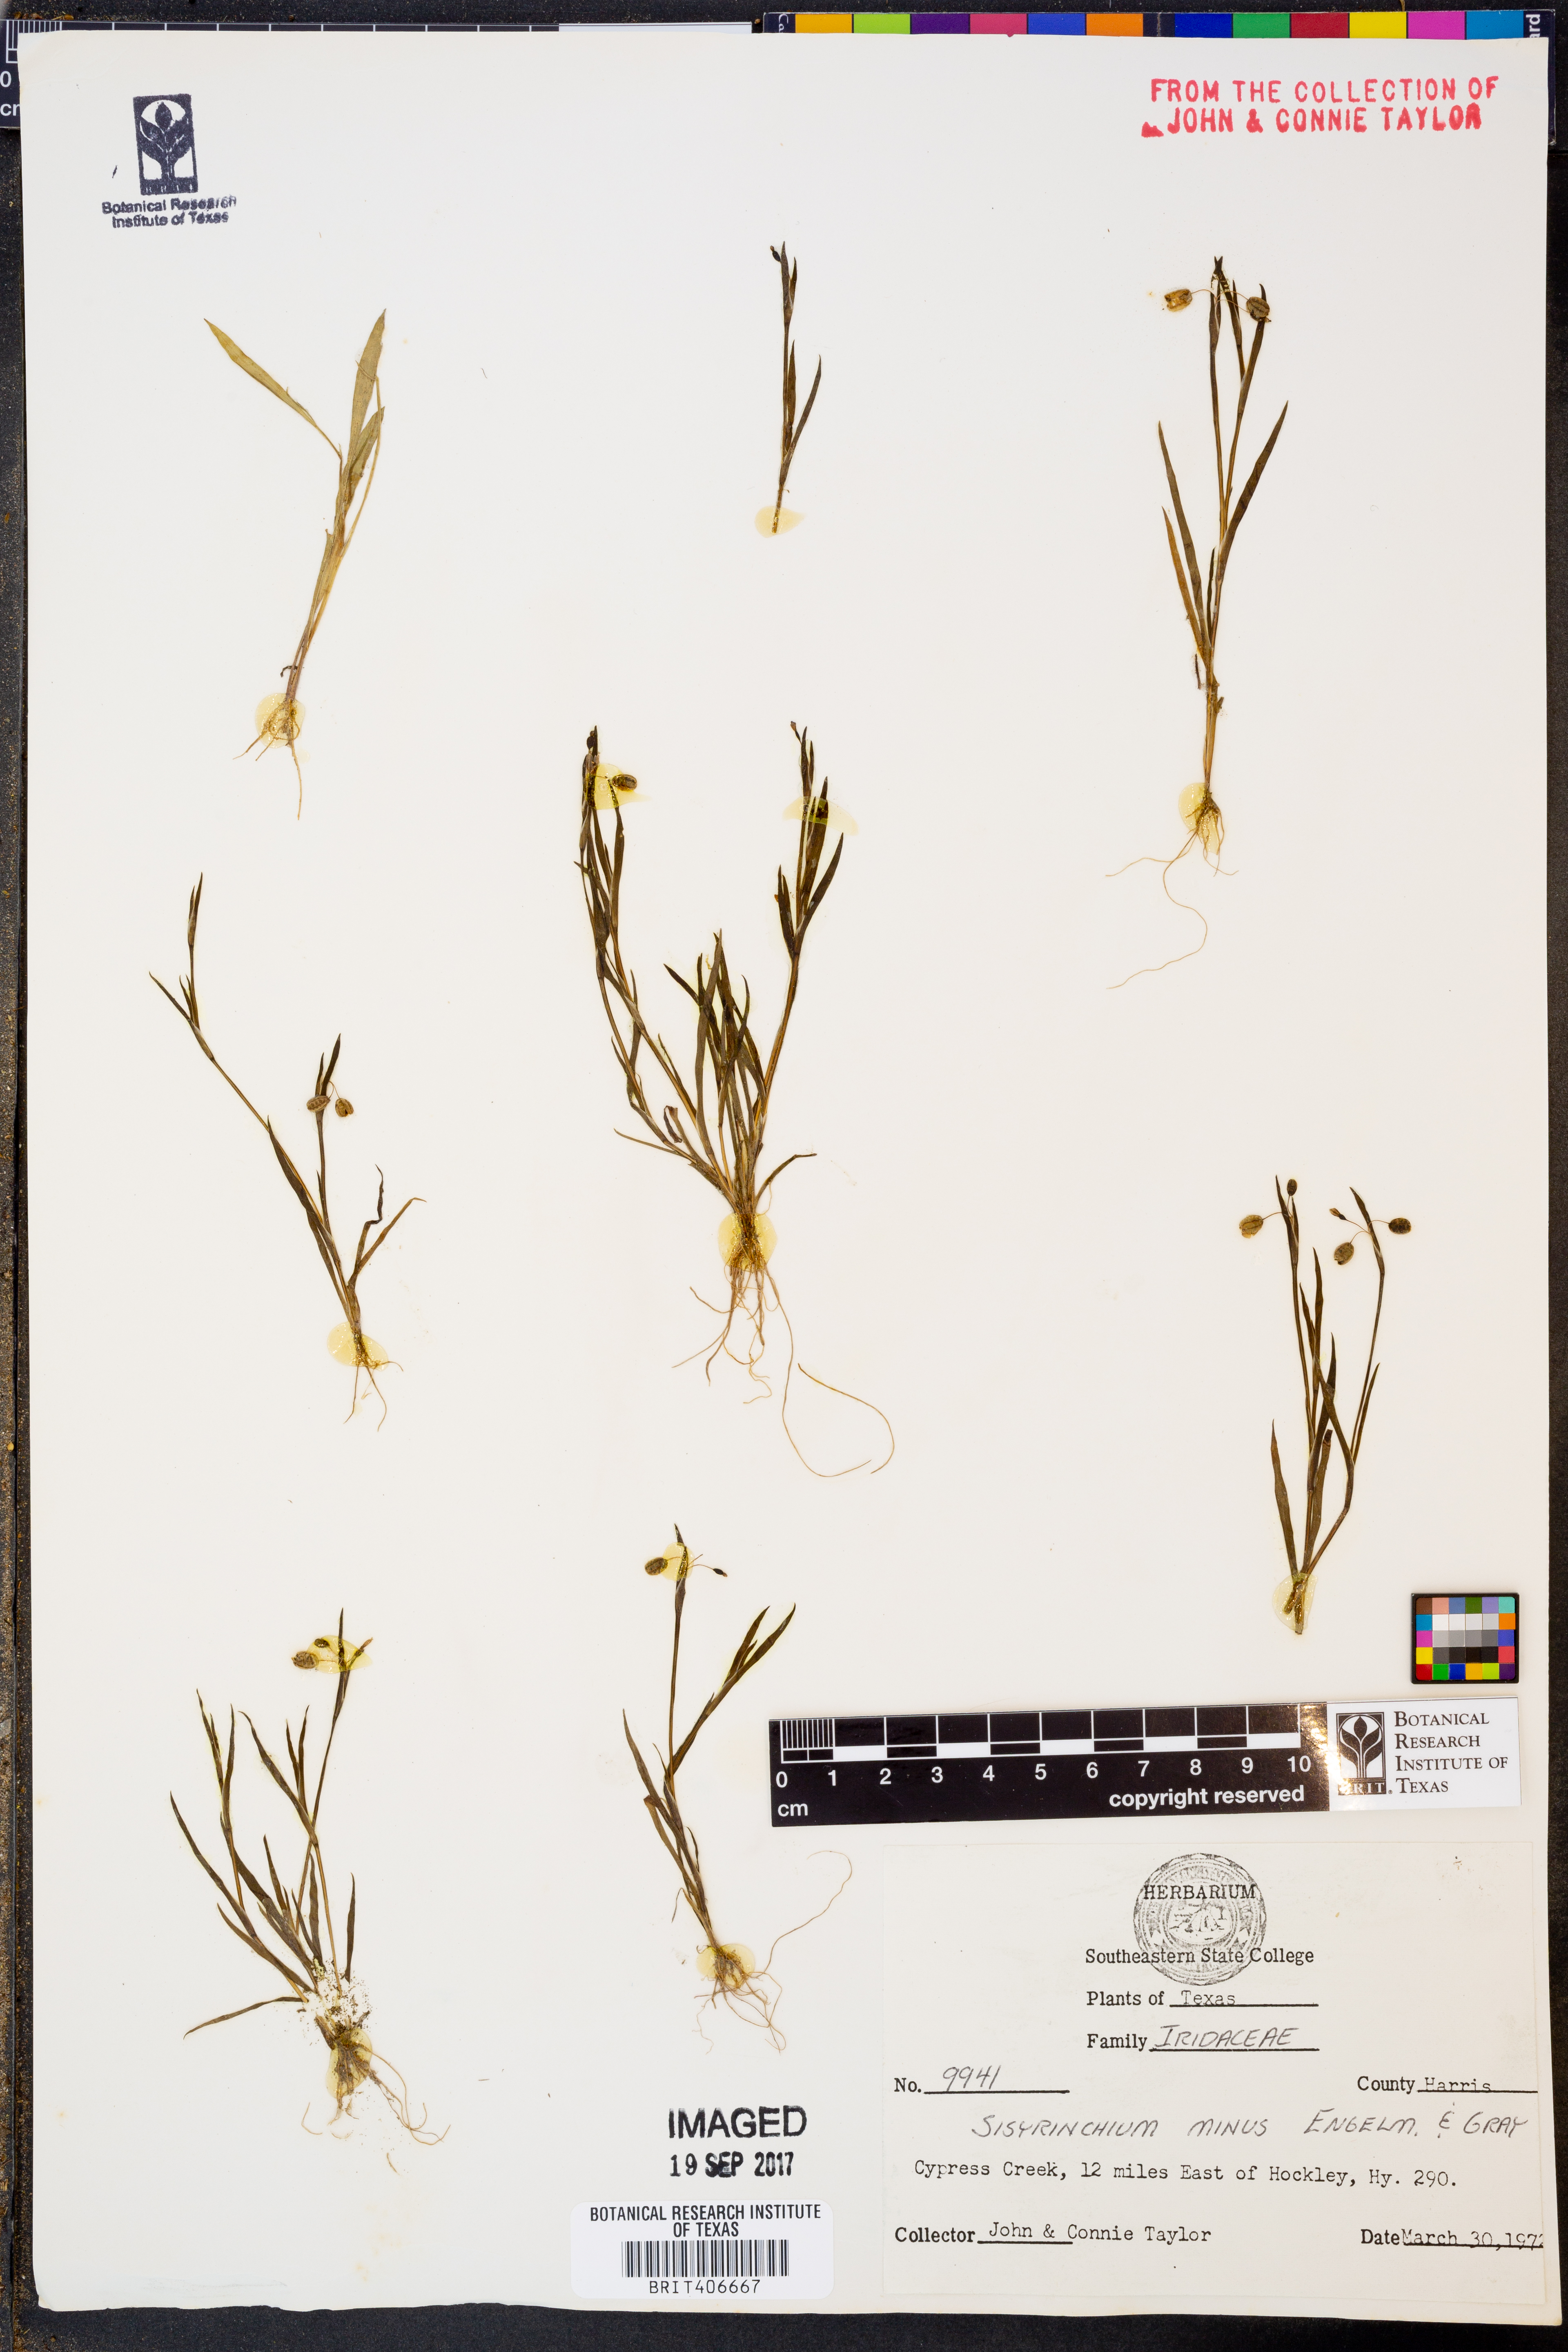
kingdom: Plantae
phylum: Tracheophyta
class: Liliopsida
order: Asparagales
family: Iridaceae
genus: Sisyrinchium
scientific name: Sisyrinchium minus
